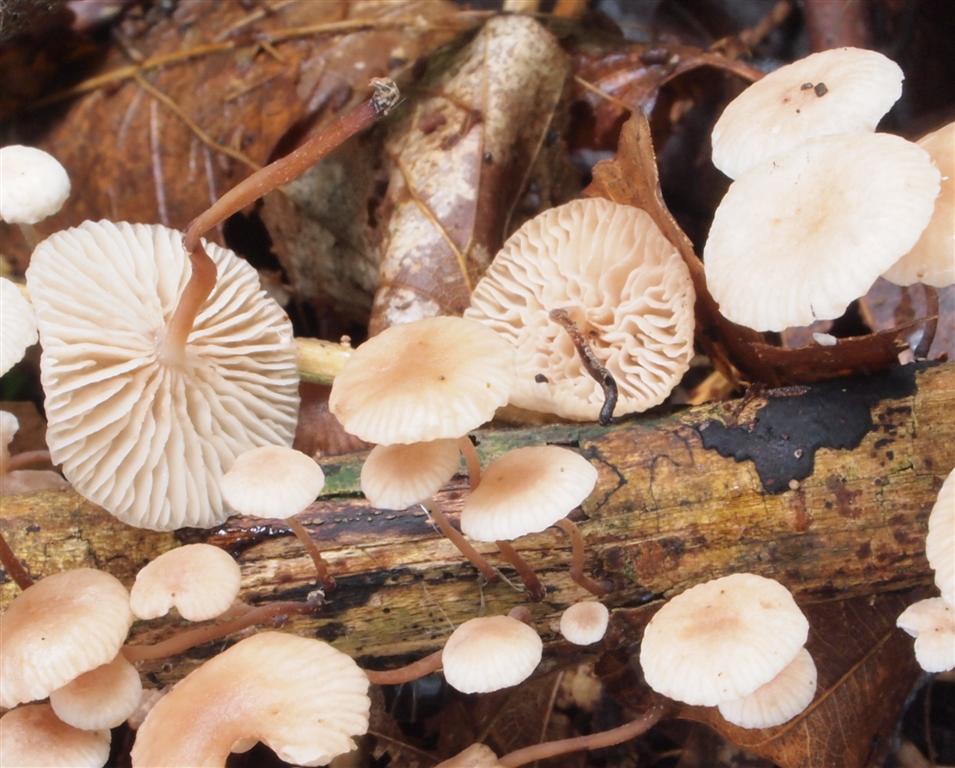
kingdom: Fungi
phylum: Basidiomycota
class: Agaricomycetes
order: Agaricales
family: Omphalotaceae
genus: Collybiopsis
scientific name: Collybiopsis ramealis
